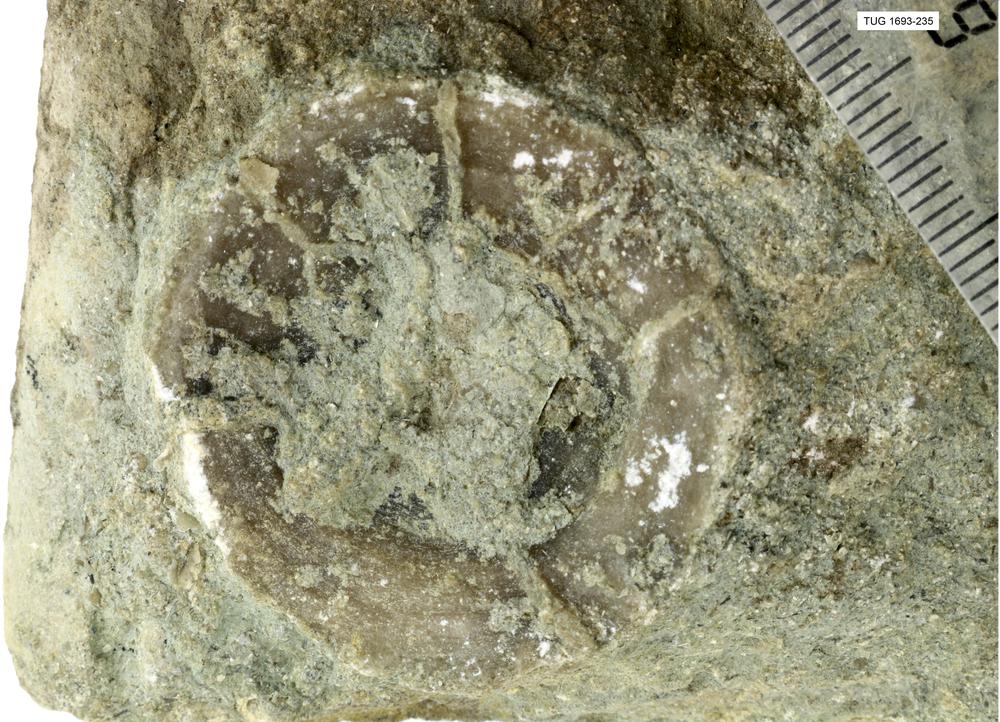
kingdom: Animalia
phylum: Mollusca
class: Monoplacophora
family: Metoptomatidae
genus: Metoptoma
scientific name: Metoptoma
